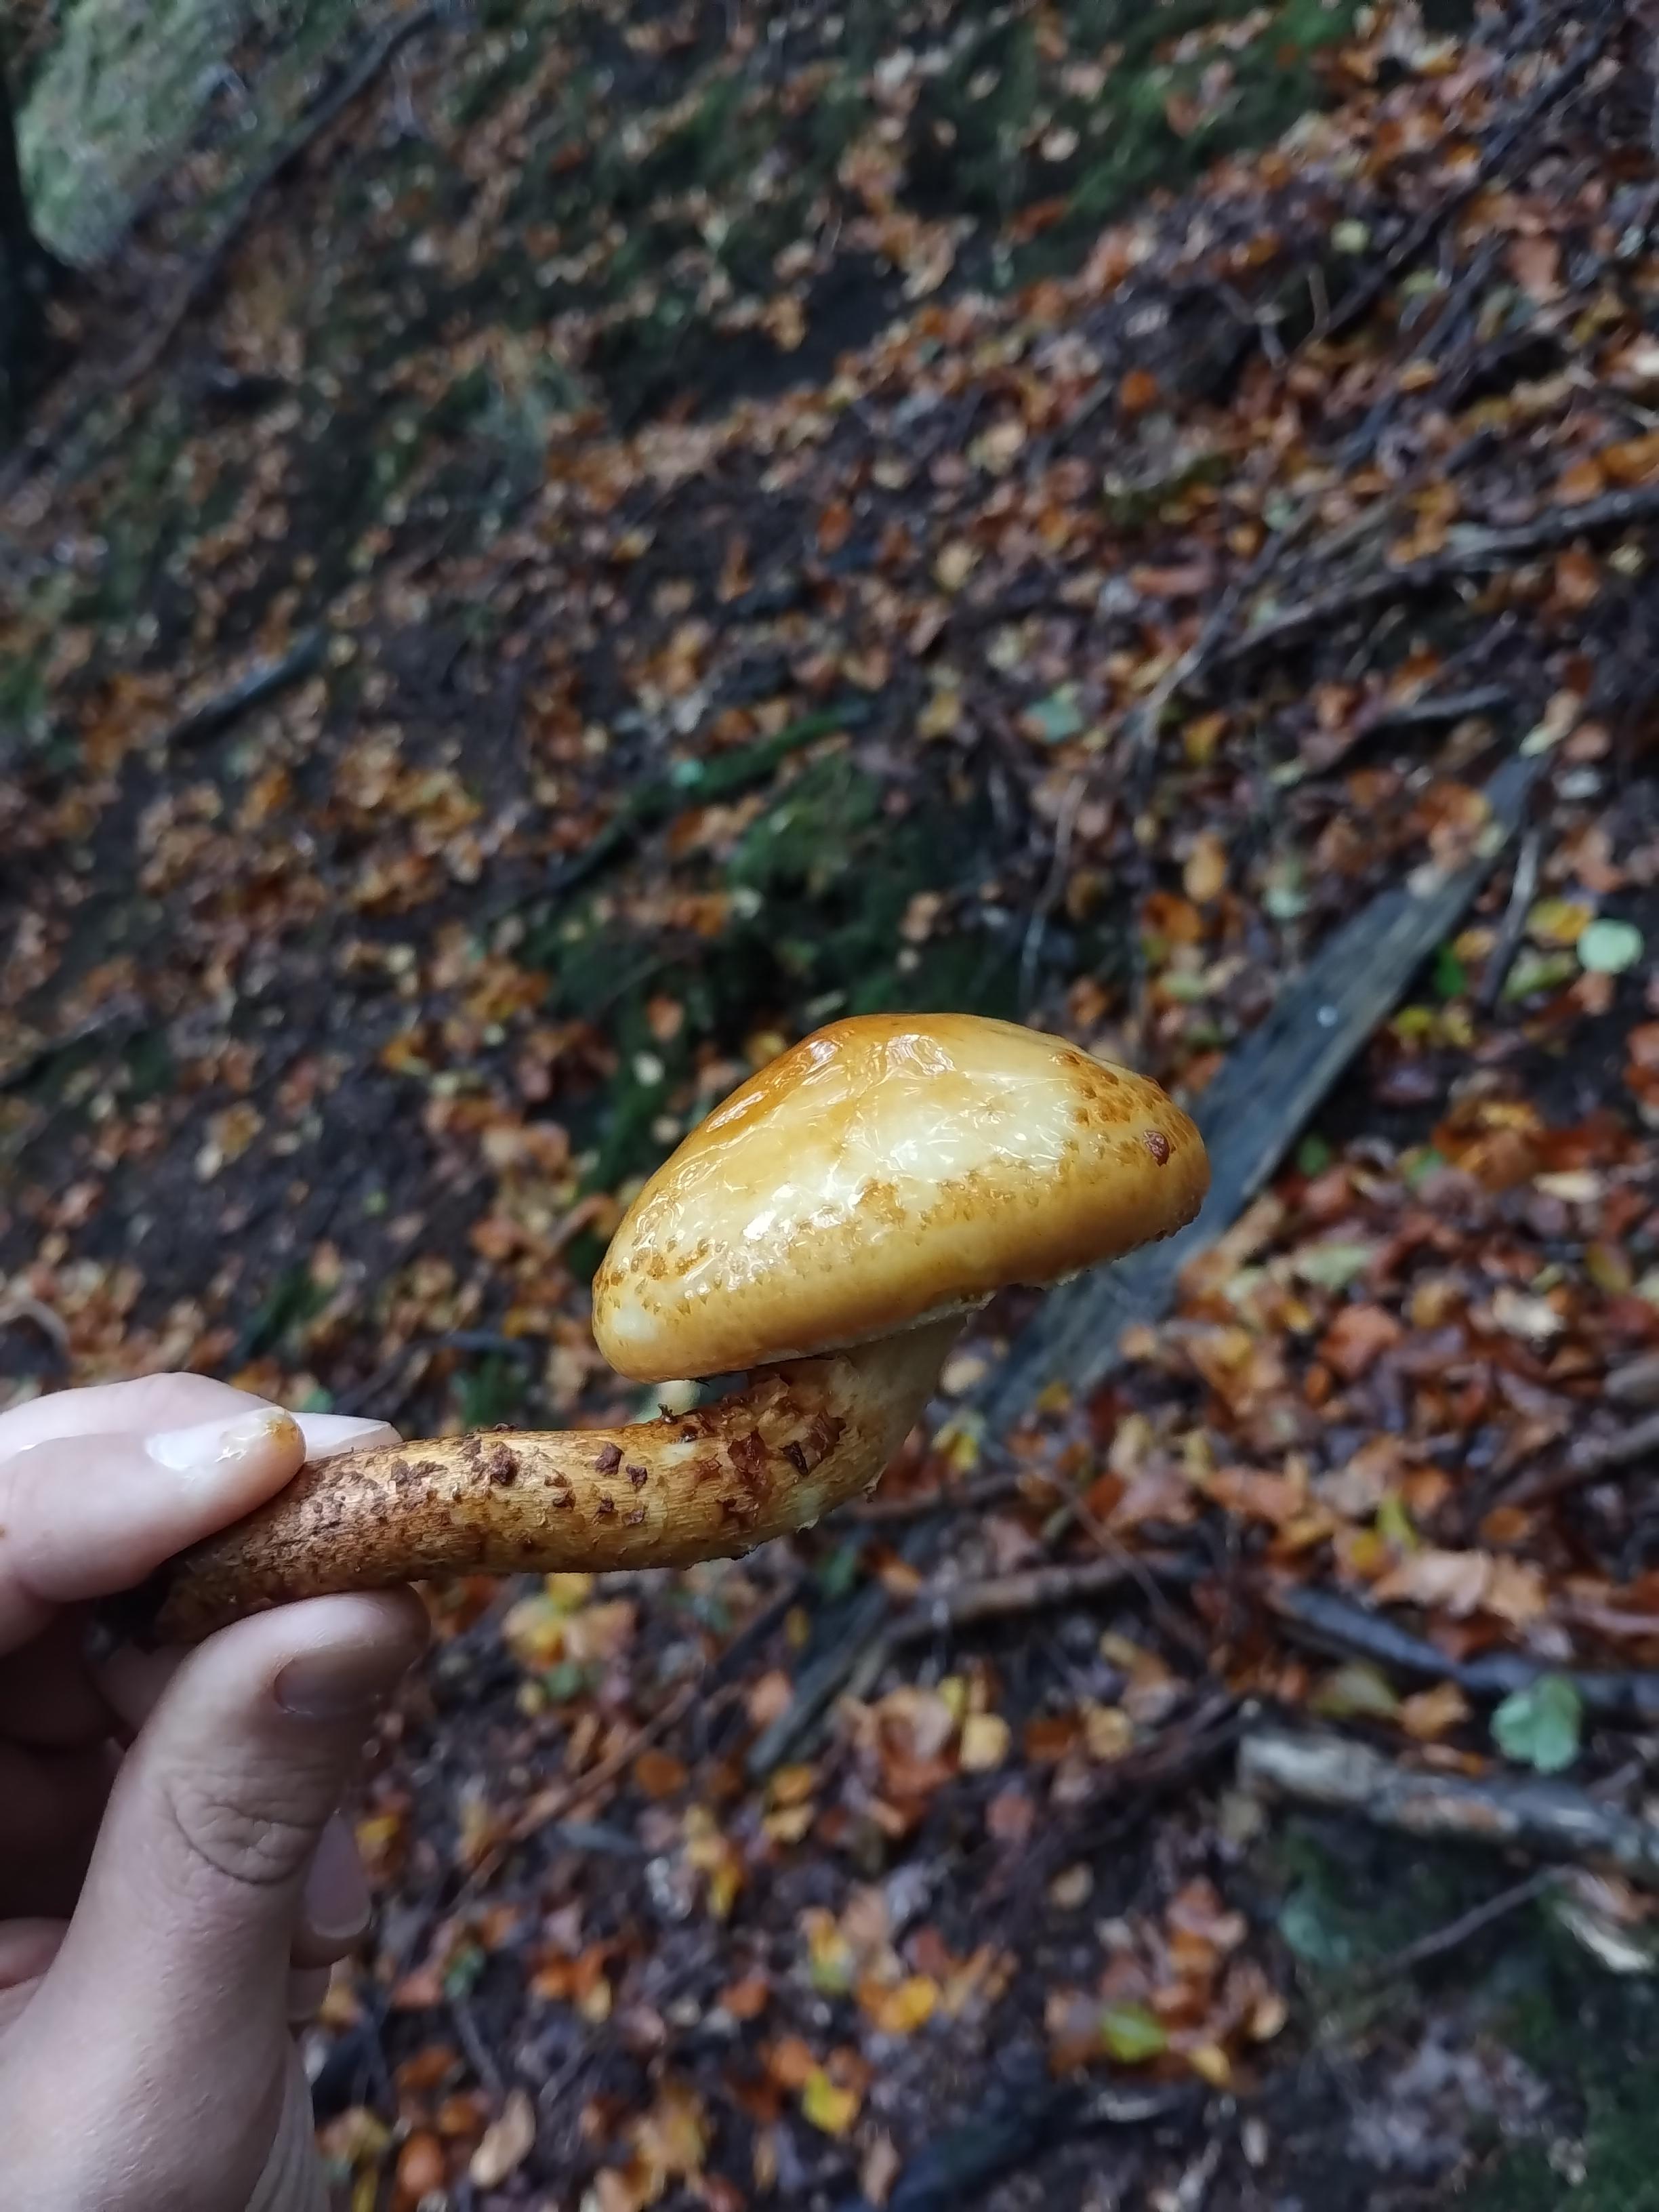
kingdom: Fungi
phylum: Basidiomycota
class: Agaricomycetes
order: Agaricales
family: Strophariaceae
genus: Pholiota
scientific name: Pholiota adiposa
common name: højtsiddende skælhat
